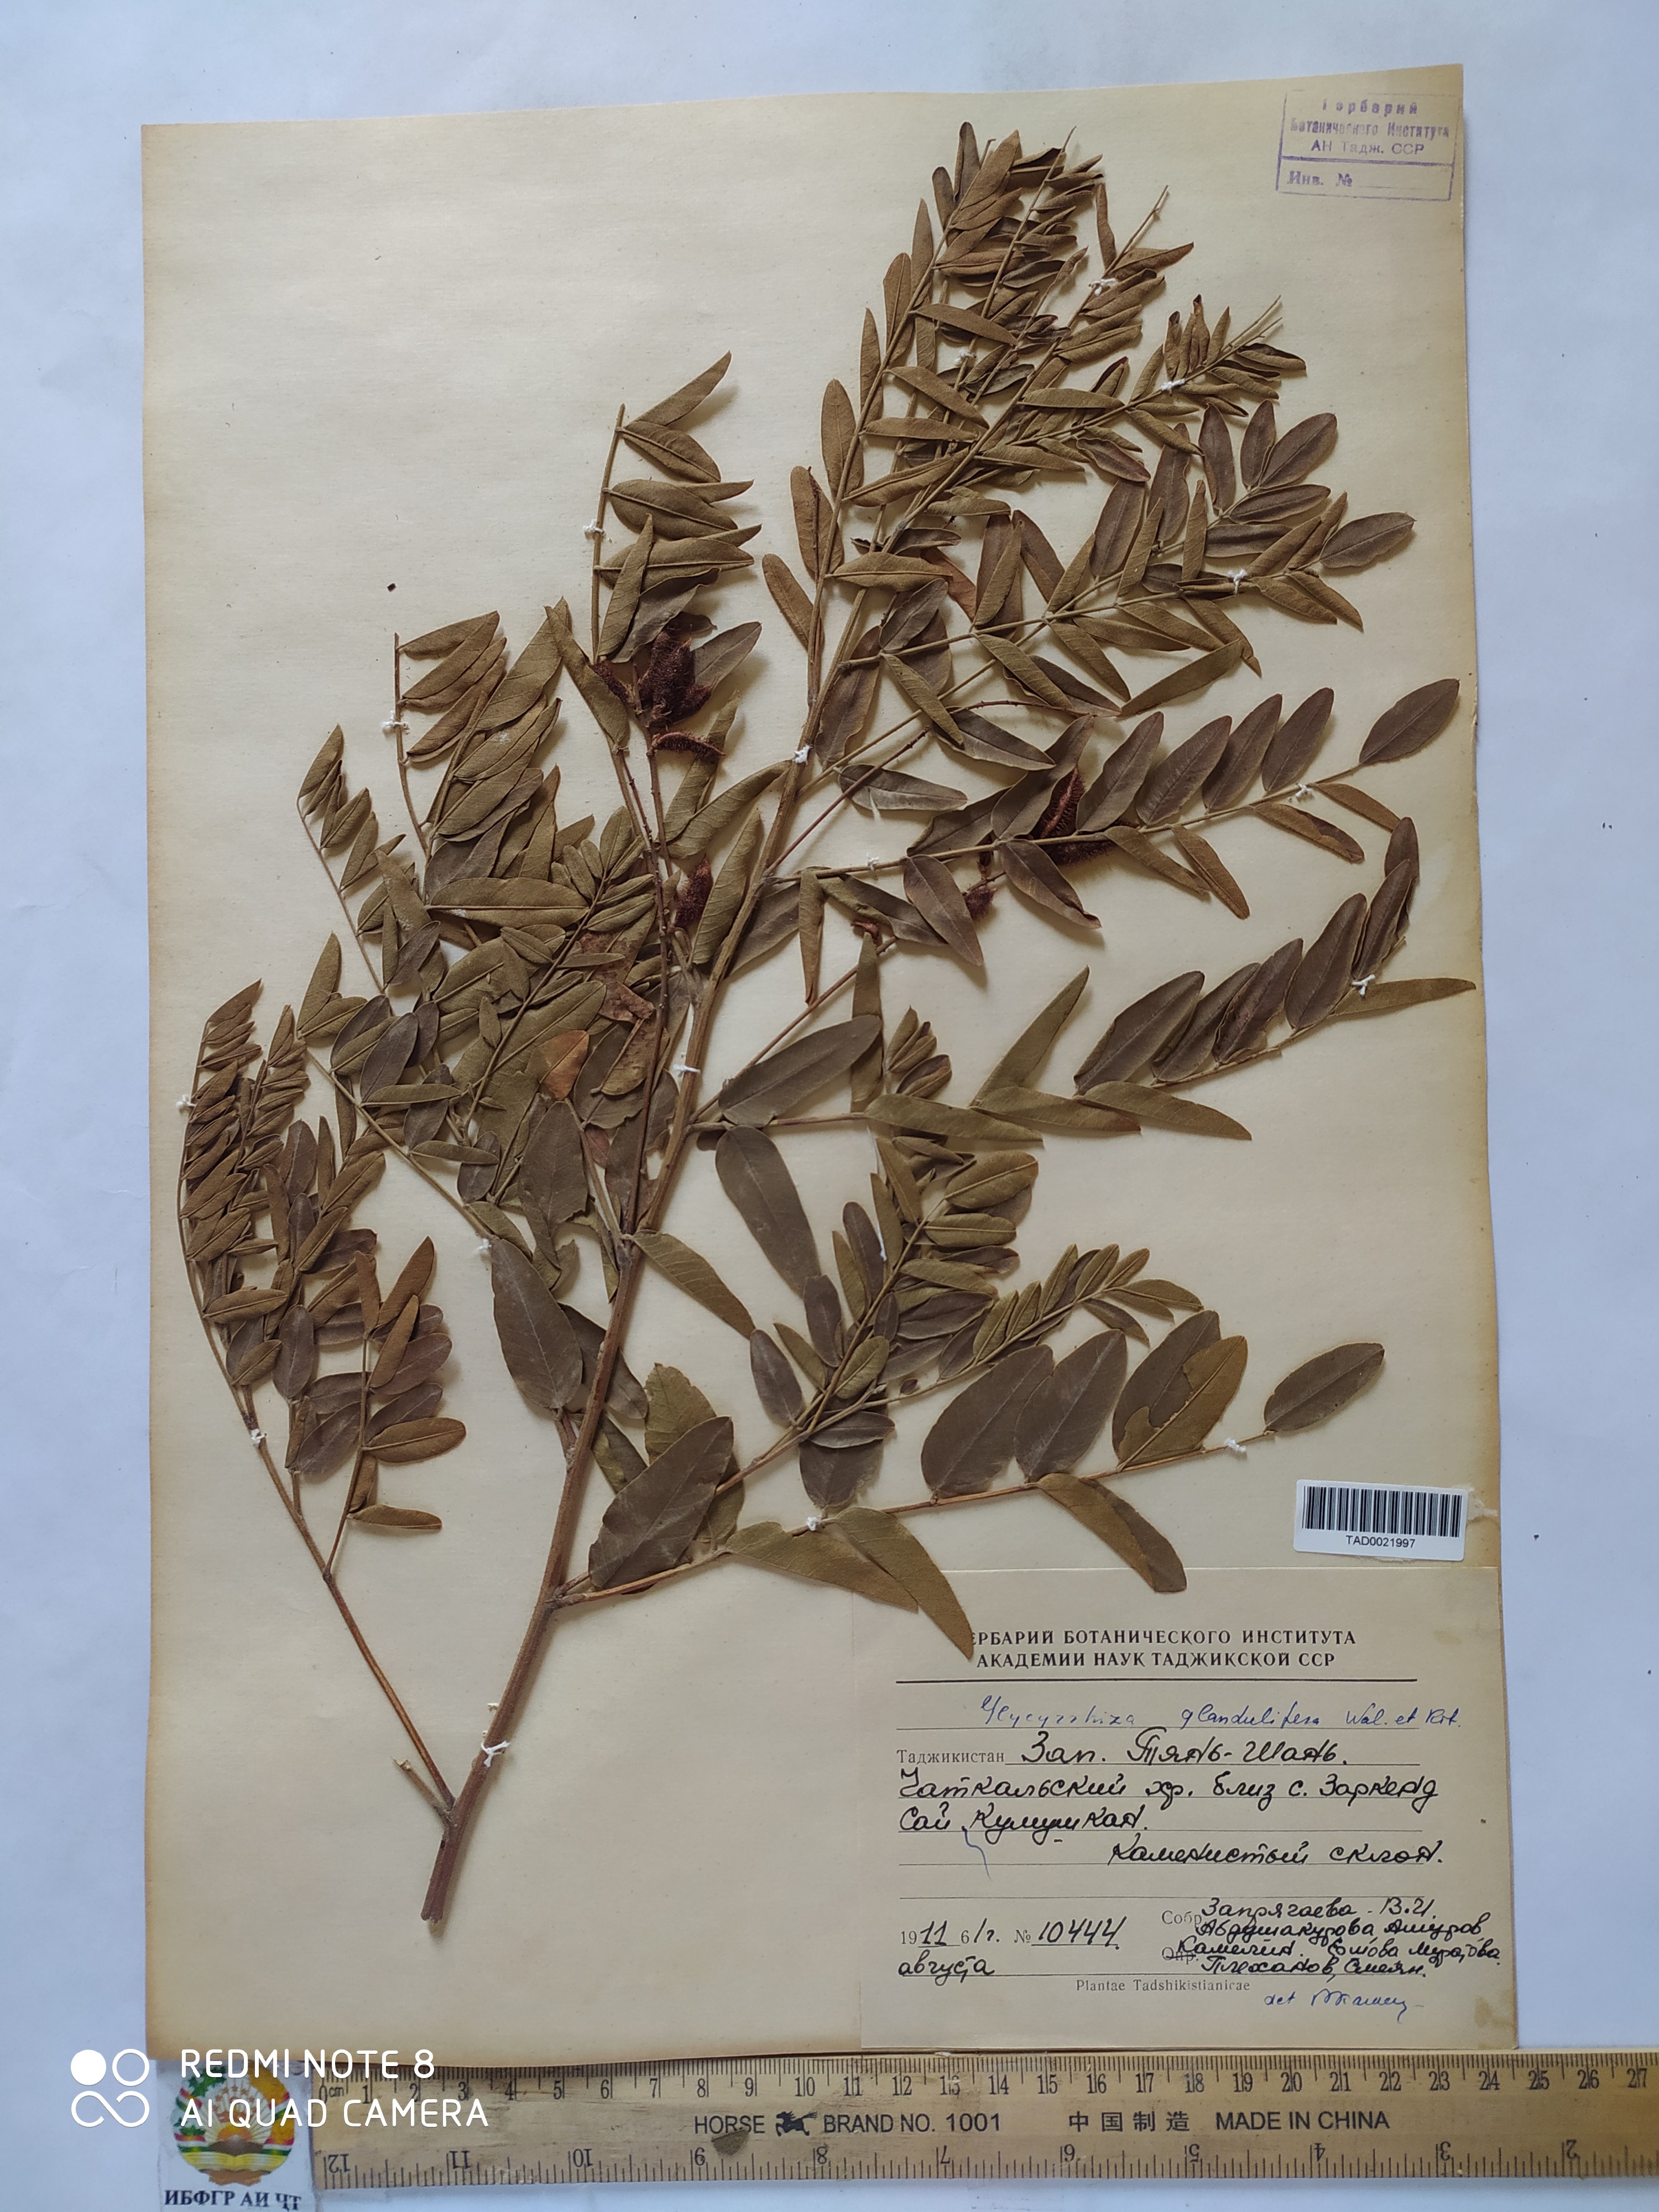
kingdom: Plantae
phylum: Tracheophyta
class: Magnoliopsida
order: Fabales
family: Fabaceae
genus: Glycyrrhiza
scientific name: Glycyrrhiza glabra
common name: Liquorice
